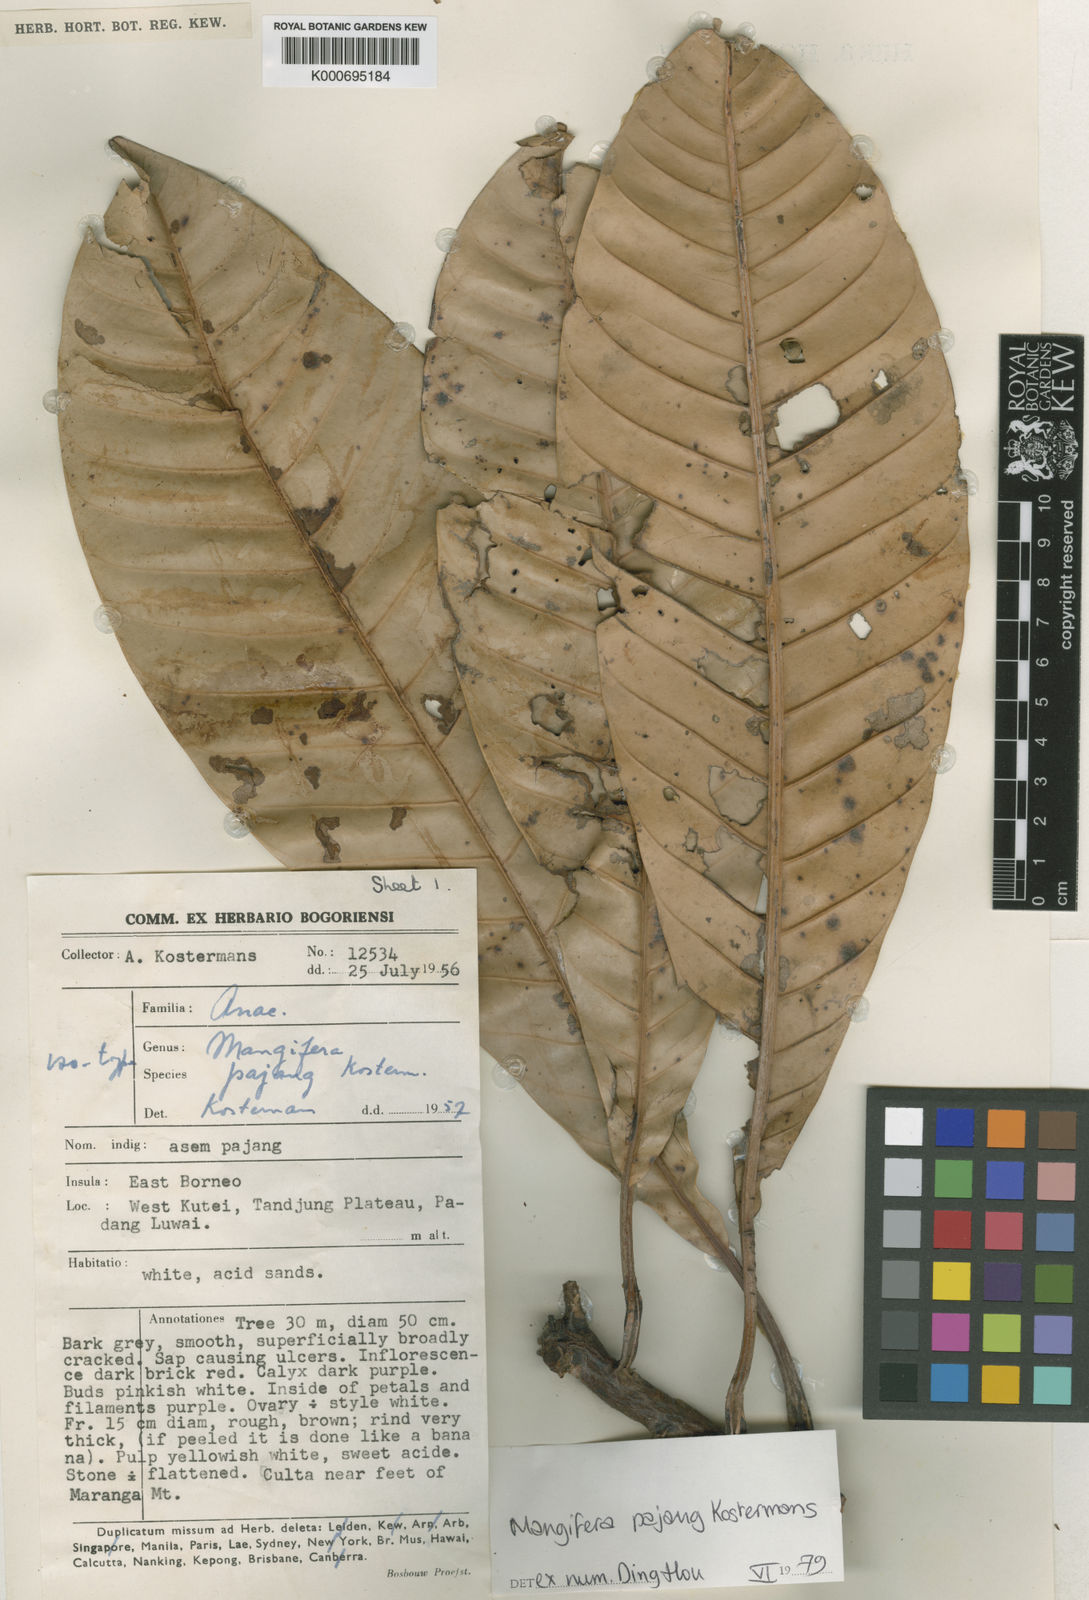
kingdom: Plantae
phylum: Tracheophyta
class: Magnoliopsida
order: Sapindales
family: Anacardiaceae
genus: Mangifera
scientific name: Mangifera pajang
